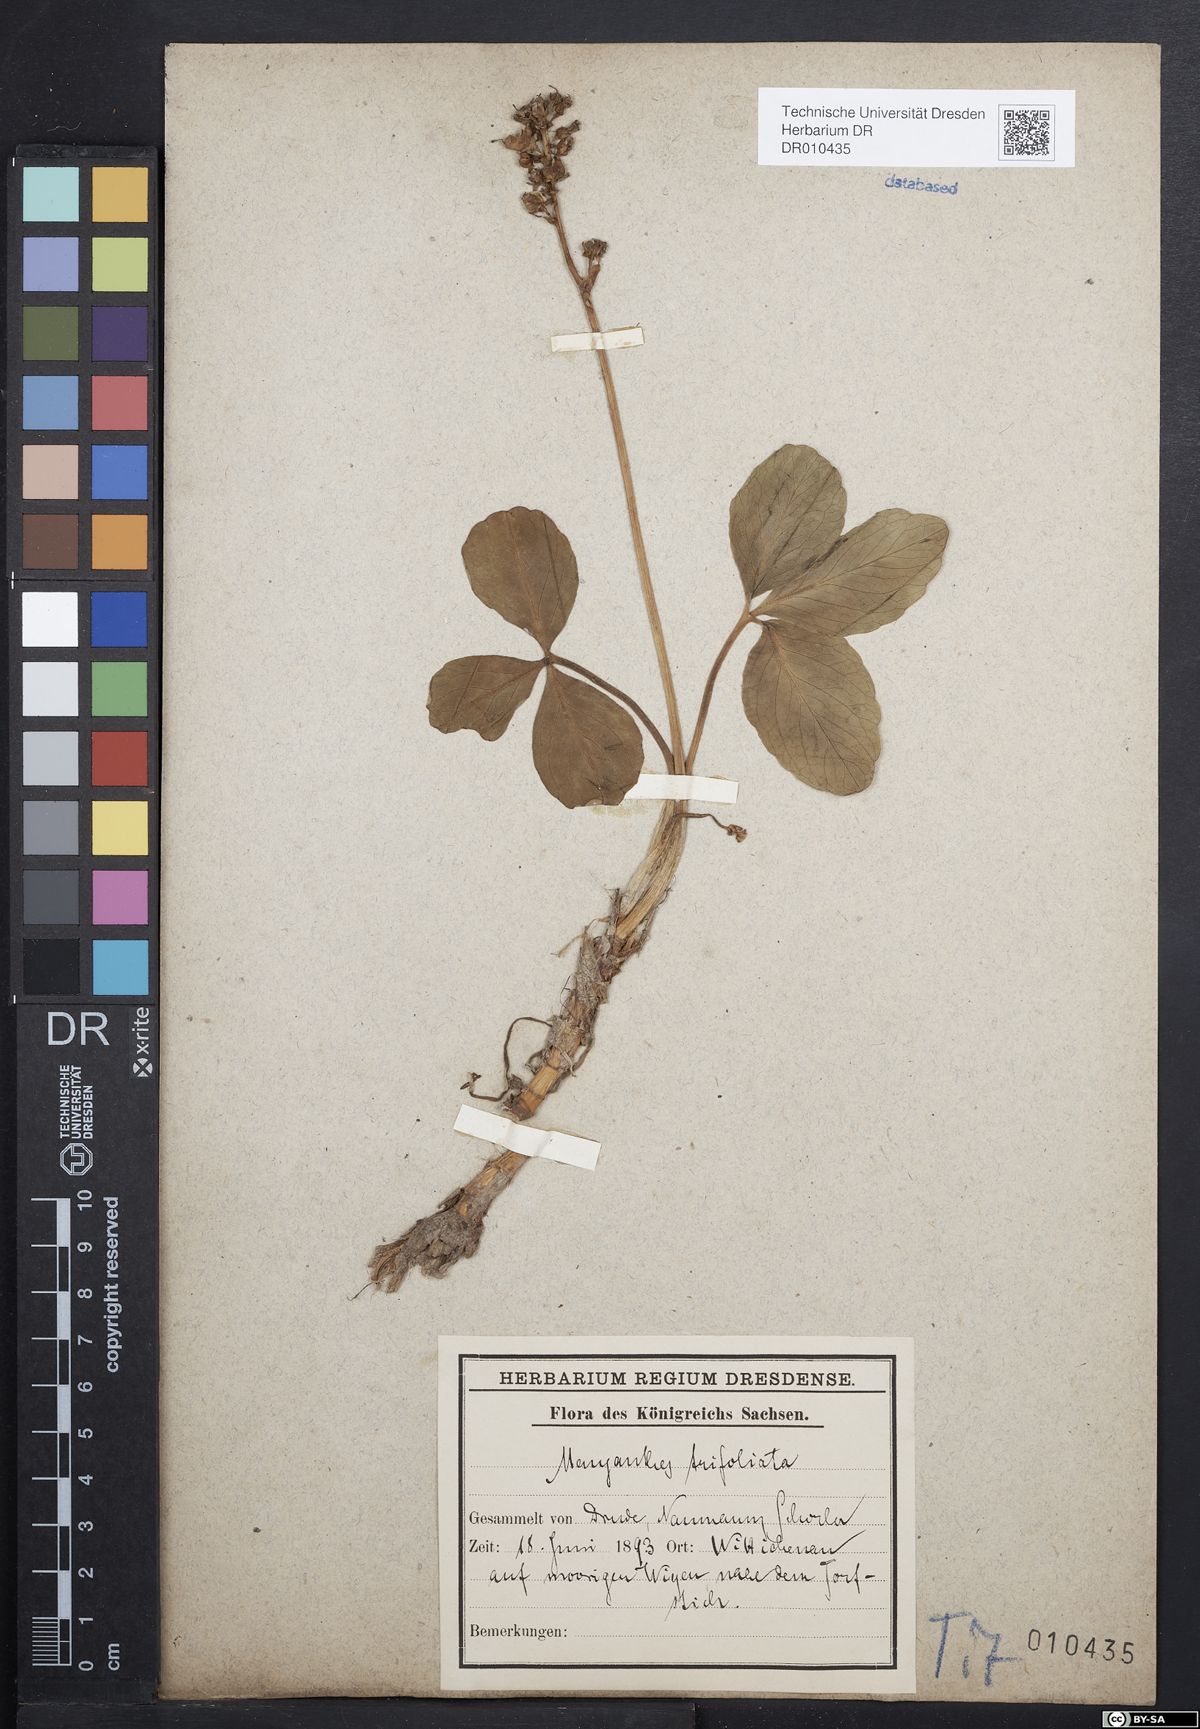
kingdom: Plantae
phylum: Tracheophyta
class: Magnoliopsida
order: Asterales
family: Menyanthaceae
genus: Menyanthes
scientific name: Menyanthes trifoliata
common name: Bogbean
